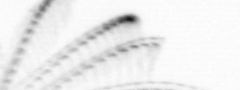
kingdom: Animalia
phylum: Arthropoda
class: Maxillopoda
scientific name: Maxillopoda
